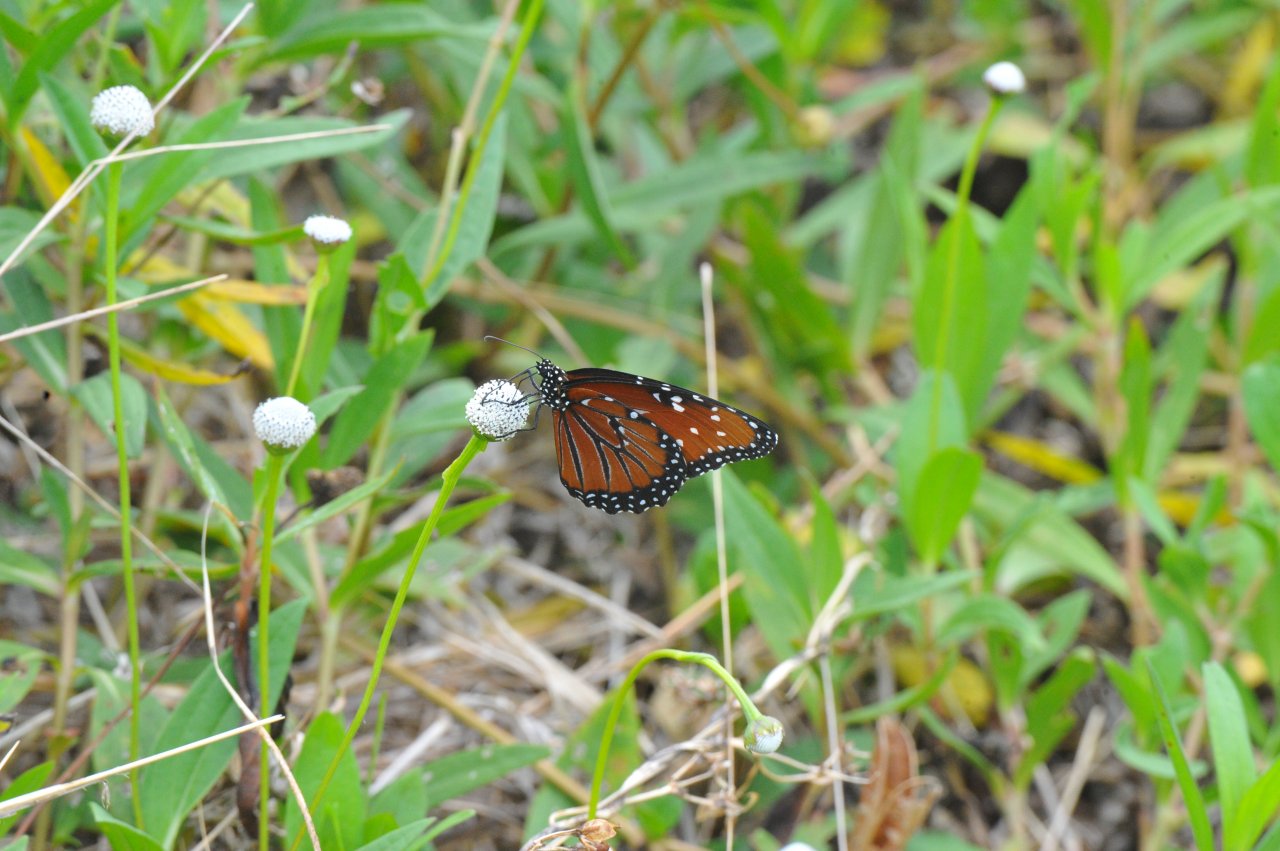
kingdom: Animalia
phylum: Arthropoda
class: Insecta
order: Lepidoptera
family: Nymphalidae
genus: Danaus
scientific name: Danaus gilippus
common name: Queen
